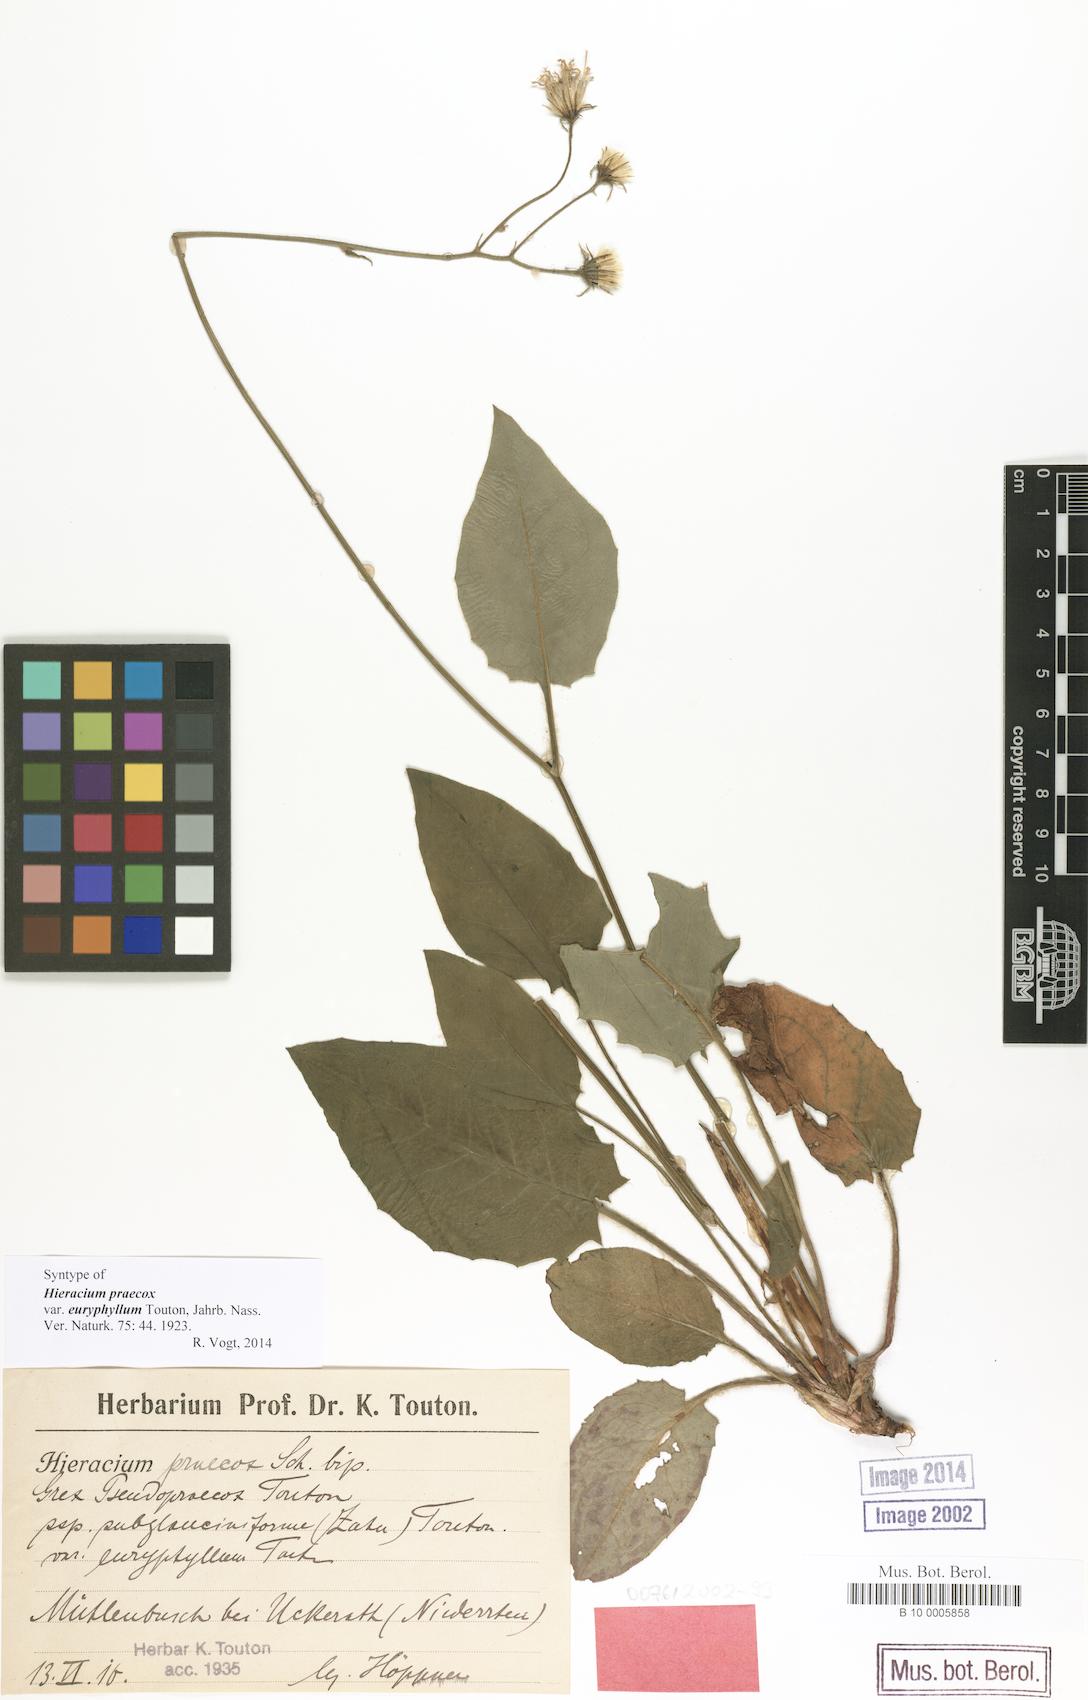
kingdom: Plantae
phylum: Tracheophyta
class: Magnoliopsida
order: Asterales
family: Asteraceae
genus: Hieracium
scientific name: Hieracium praecox
